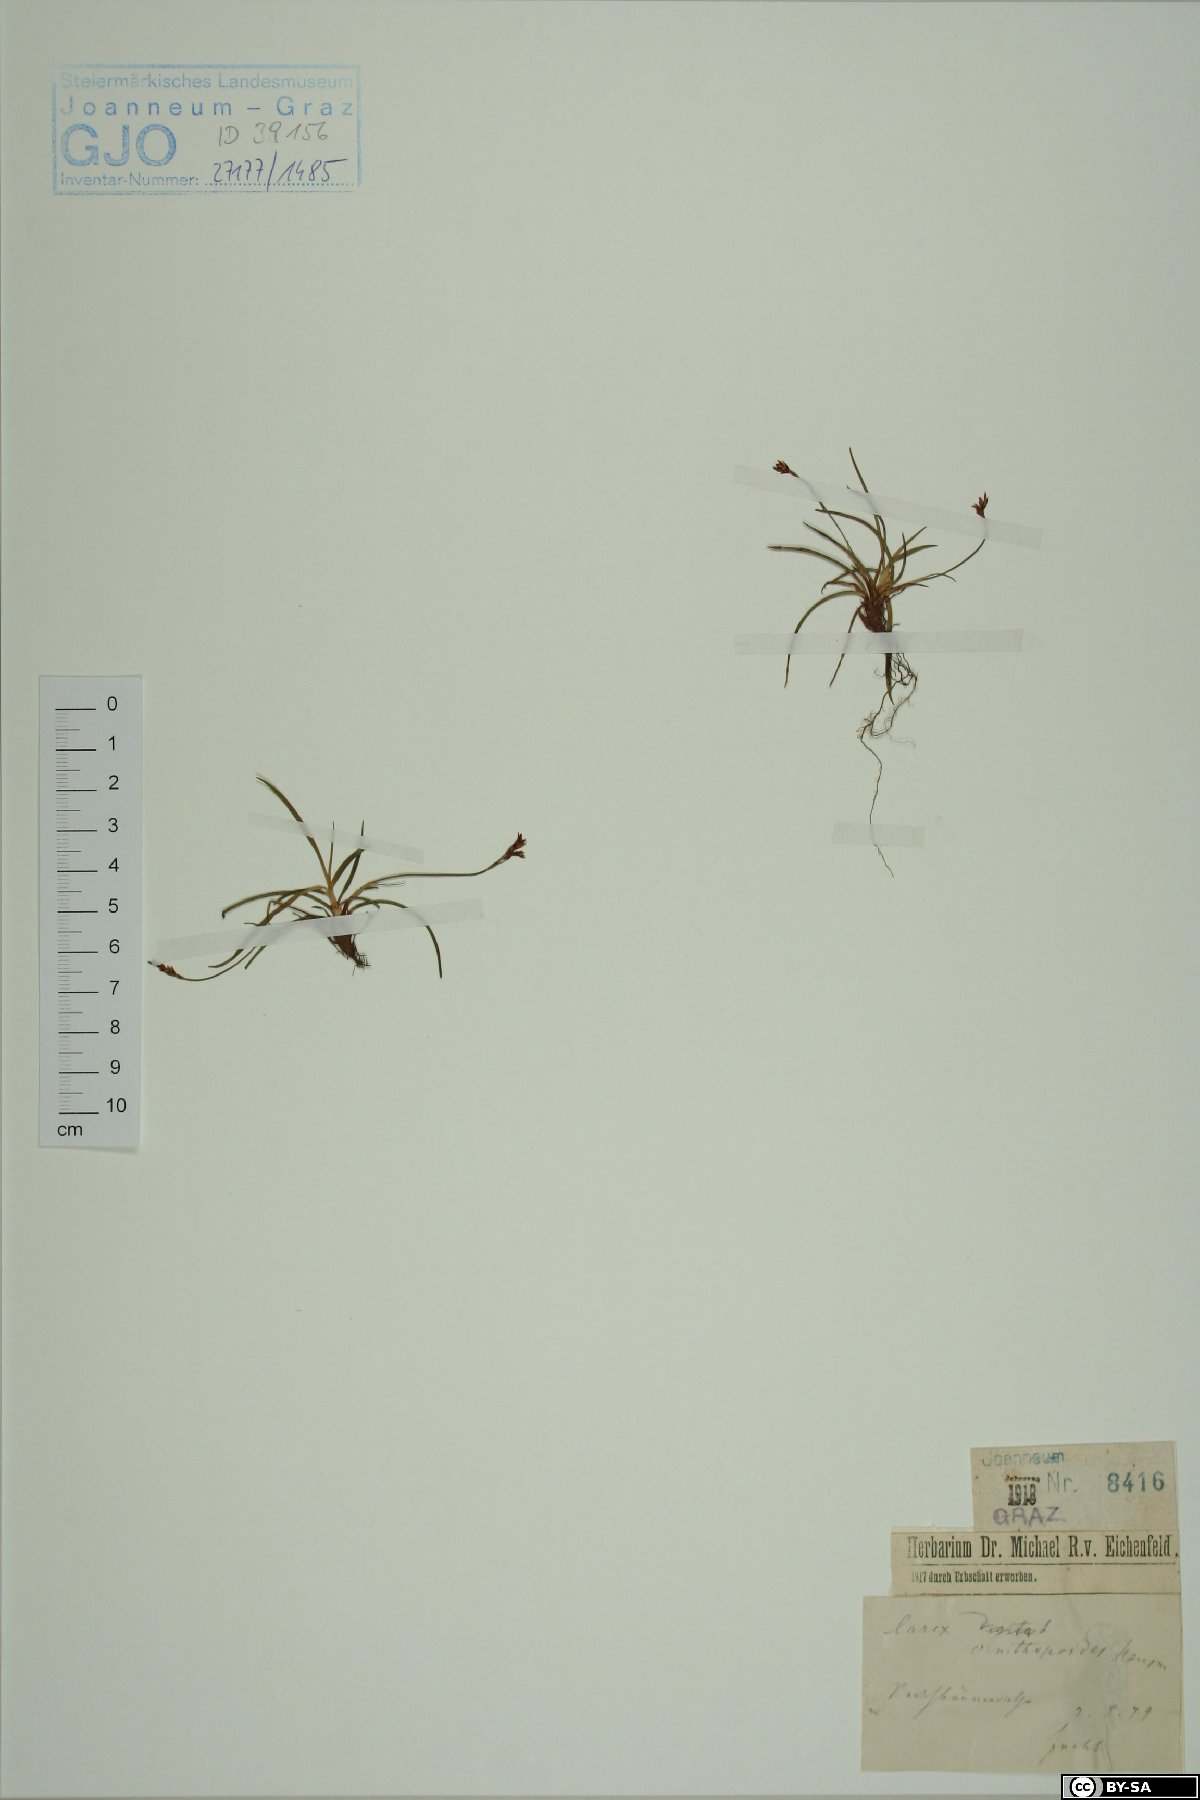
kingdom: Plantae
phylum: Tracheophyta
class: Liliopsida
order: Poales
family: Cyperaceae
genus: Carex
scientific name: Carex ornithopoda
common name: Bird's-foot sedge
